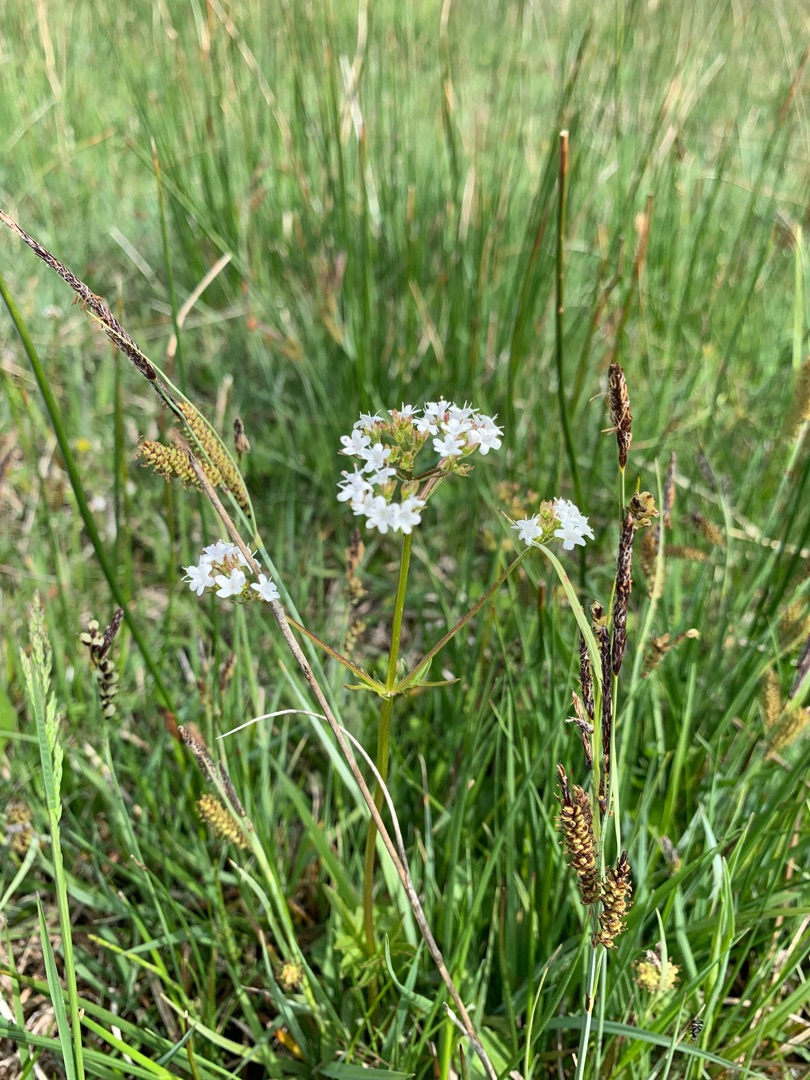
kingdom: Plantae
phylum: Tracheophyta
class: Magnoliopsida
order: Dipsacales
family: Caprifoliaceae
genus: Valeriana
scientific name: Valeriana dioica
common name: Tvebo baldrian
